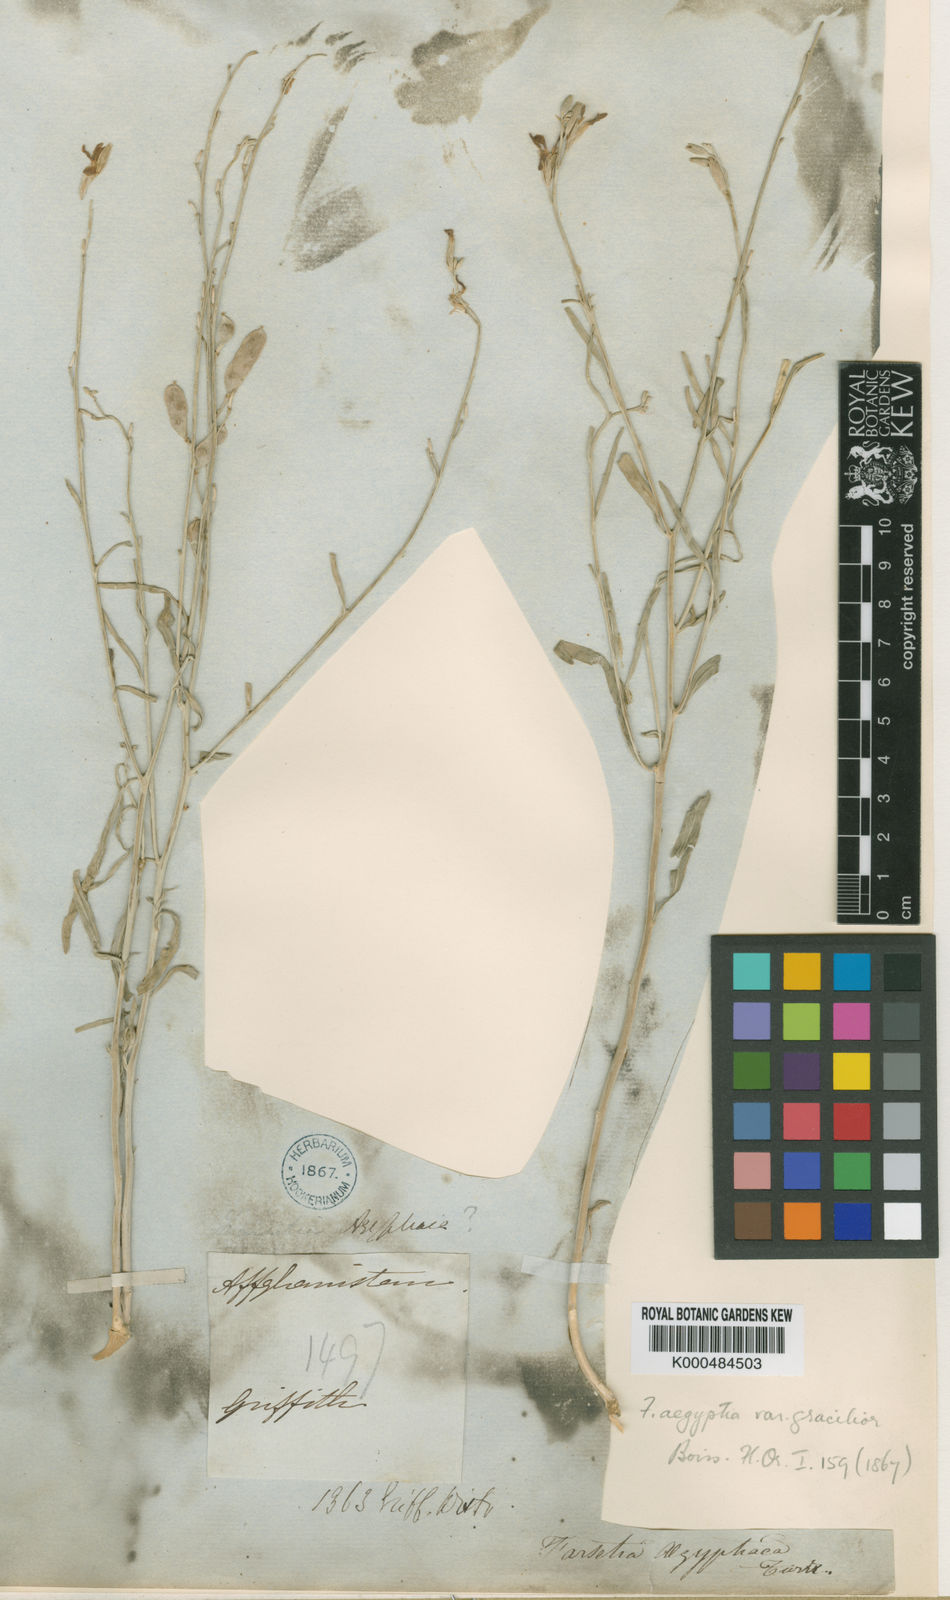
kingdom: Plantae
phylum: Tracheophyta
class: Magnoliopsida
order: Brassicales
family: Brassicaceae
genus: Farsetia
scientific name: Farsetia aegyptia
